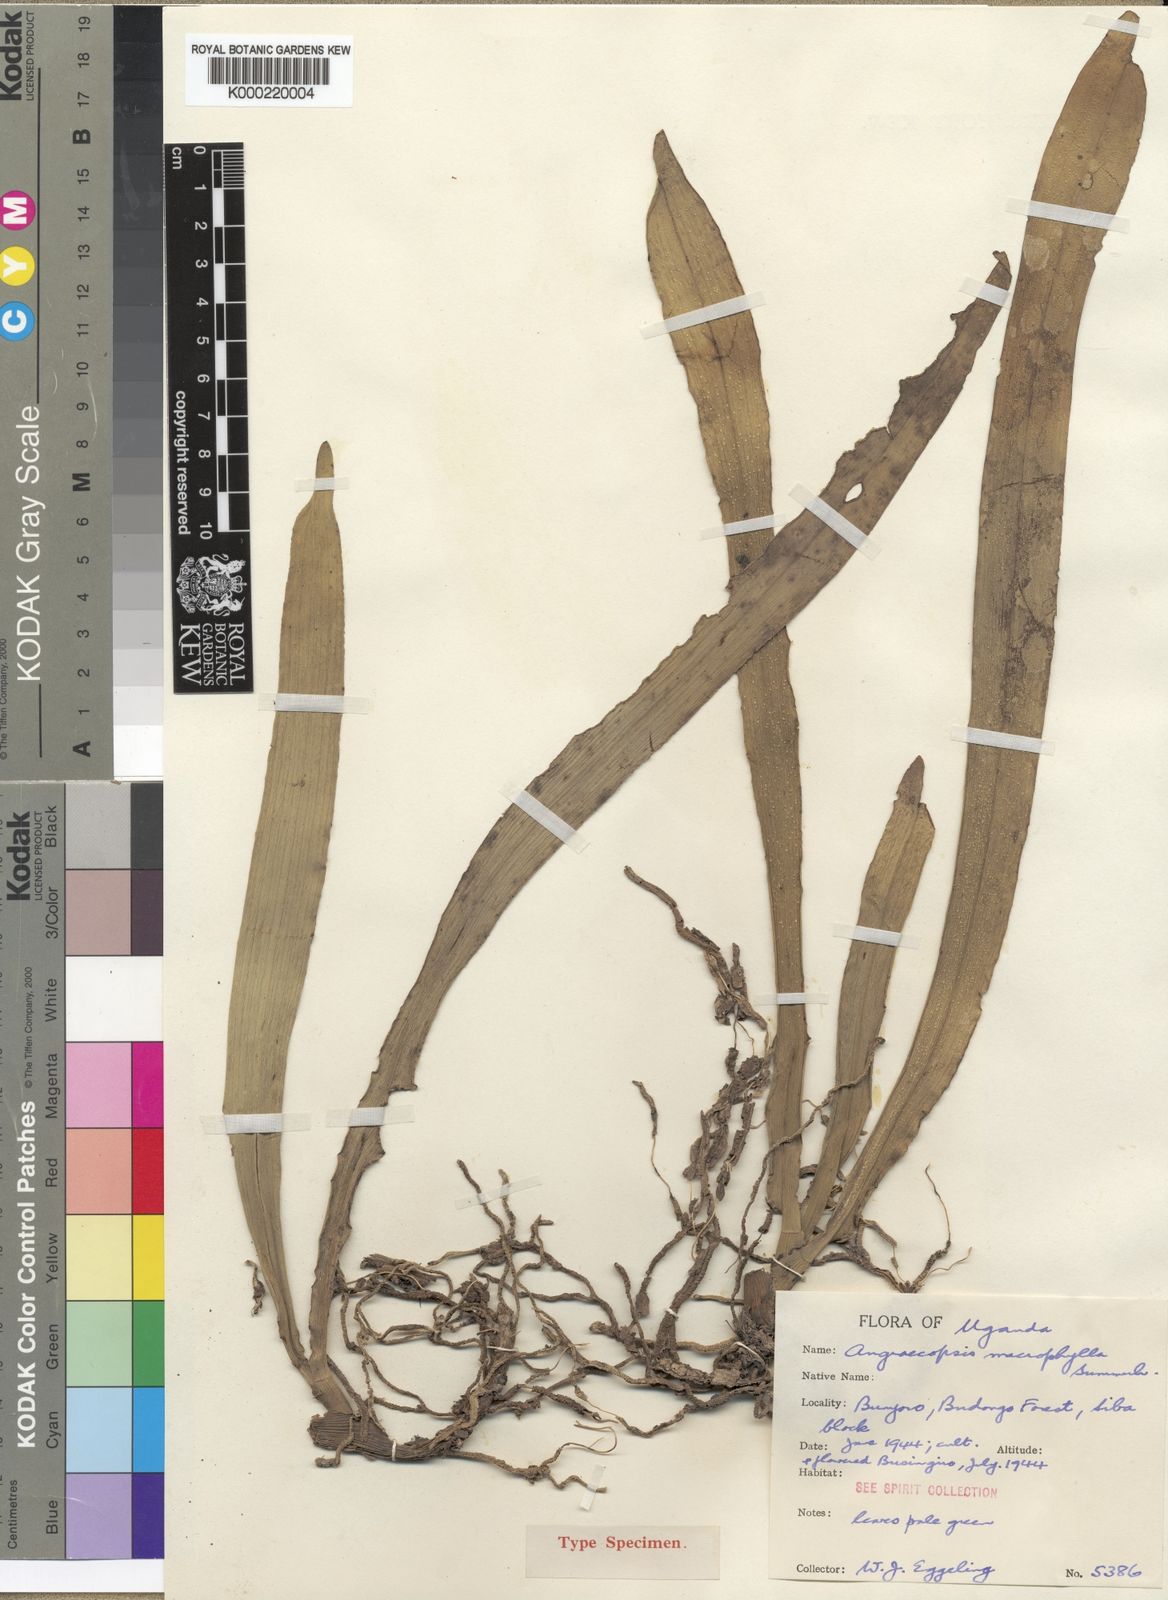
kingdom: Plantae
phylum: Tracheophyta
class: Liliopsida
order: Asparagales
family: Orchidaceae
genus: Angraecopsis
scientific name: Angraecopsis macrophylla
